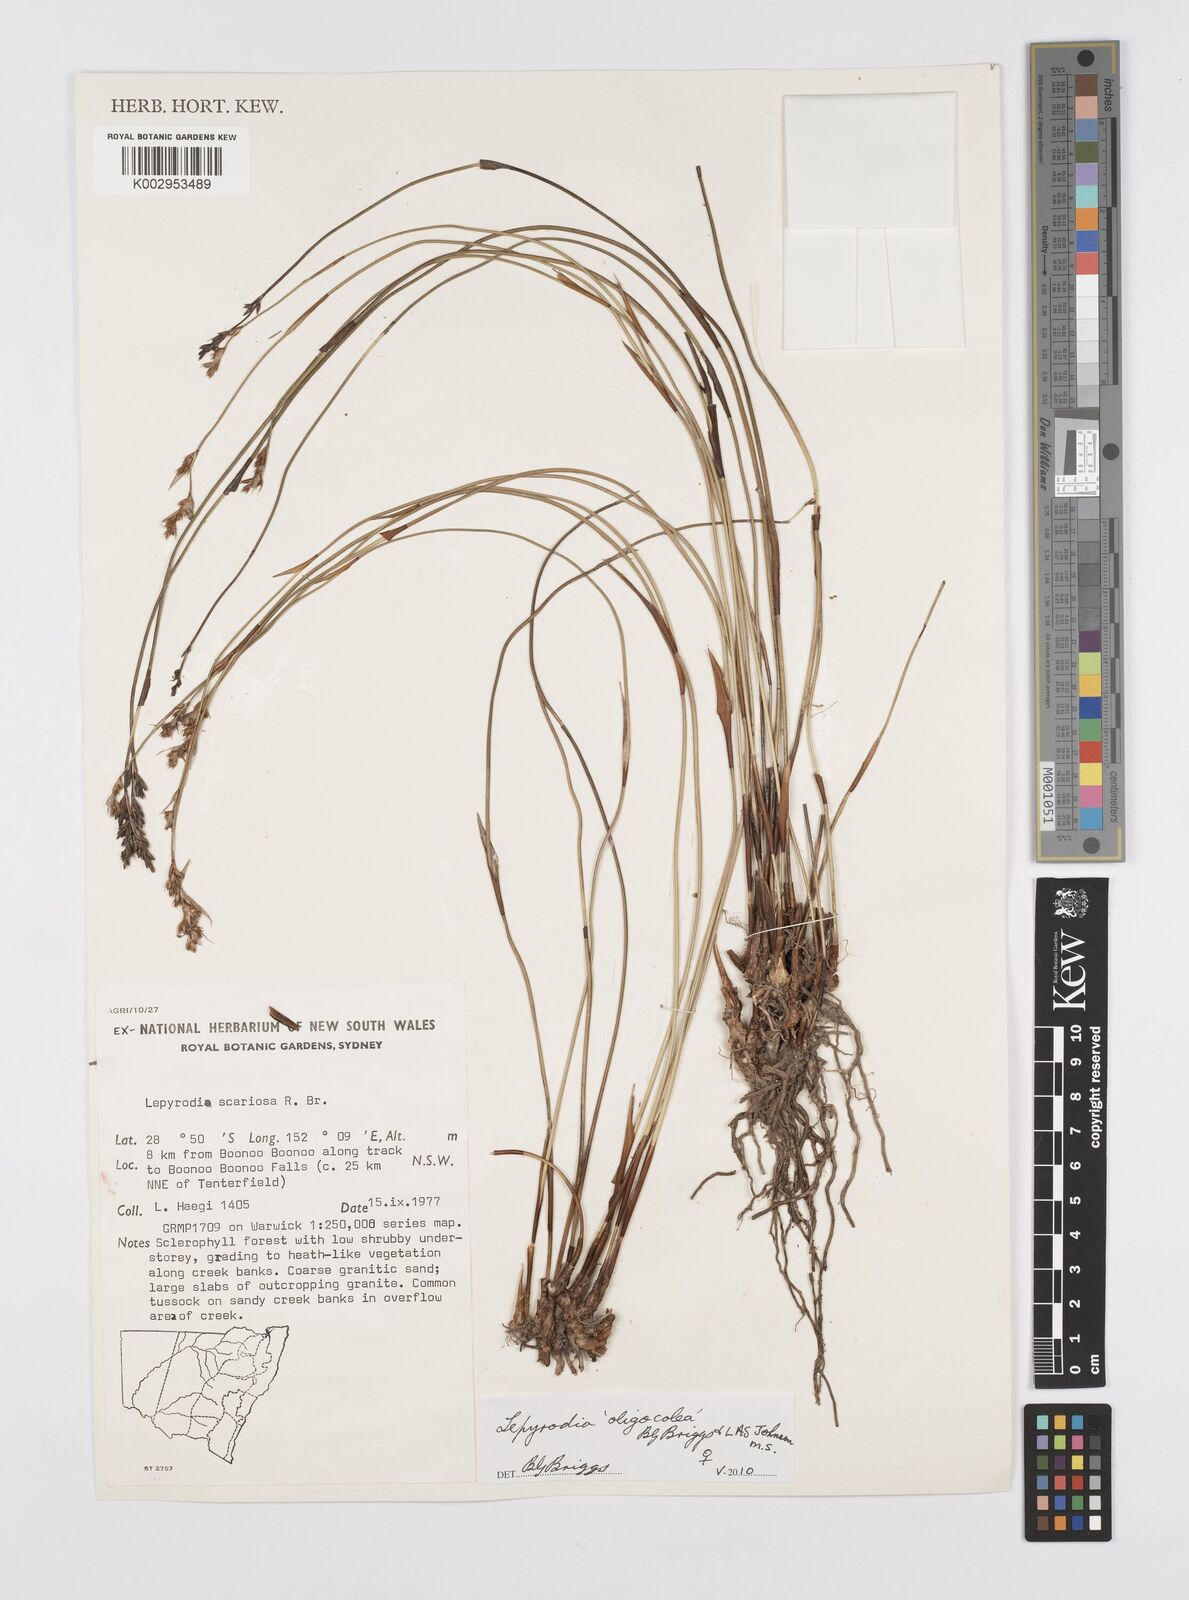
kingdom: Plantae
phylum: Tracheophyta
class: Liliopsida
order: Poales
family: Restionaceae
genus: Lepyrodia
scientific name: Lepyrodia oligocolea
